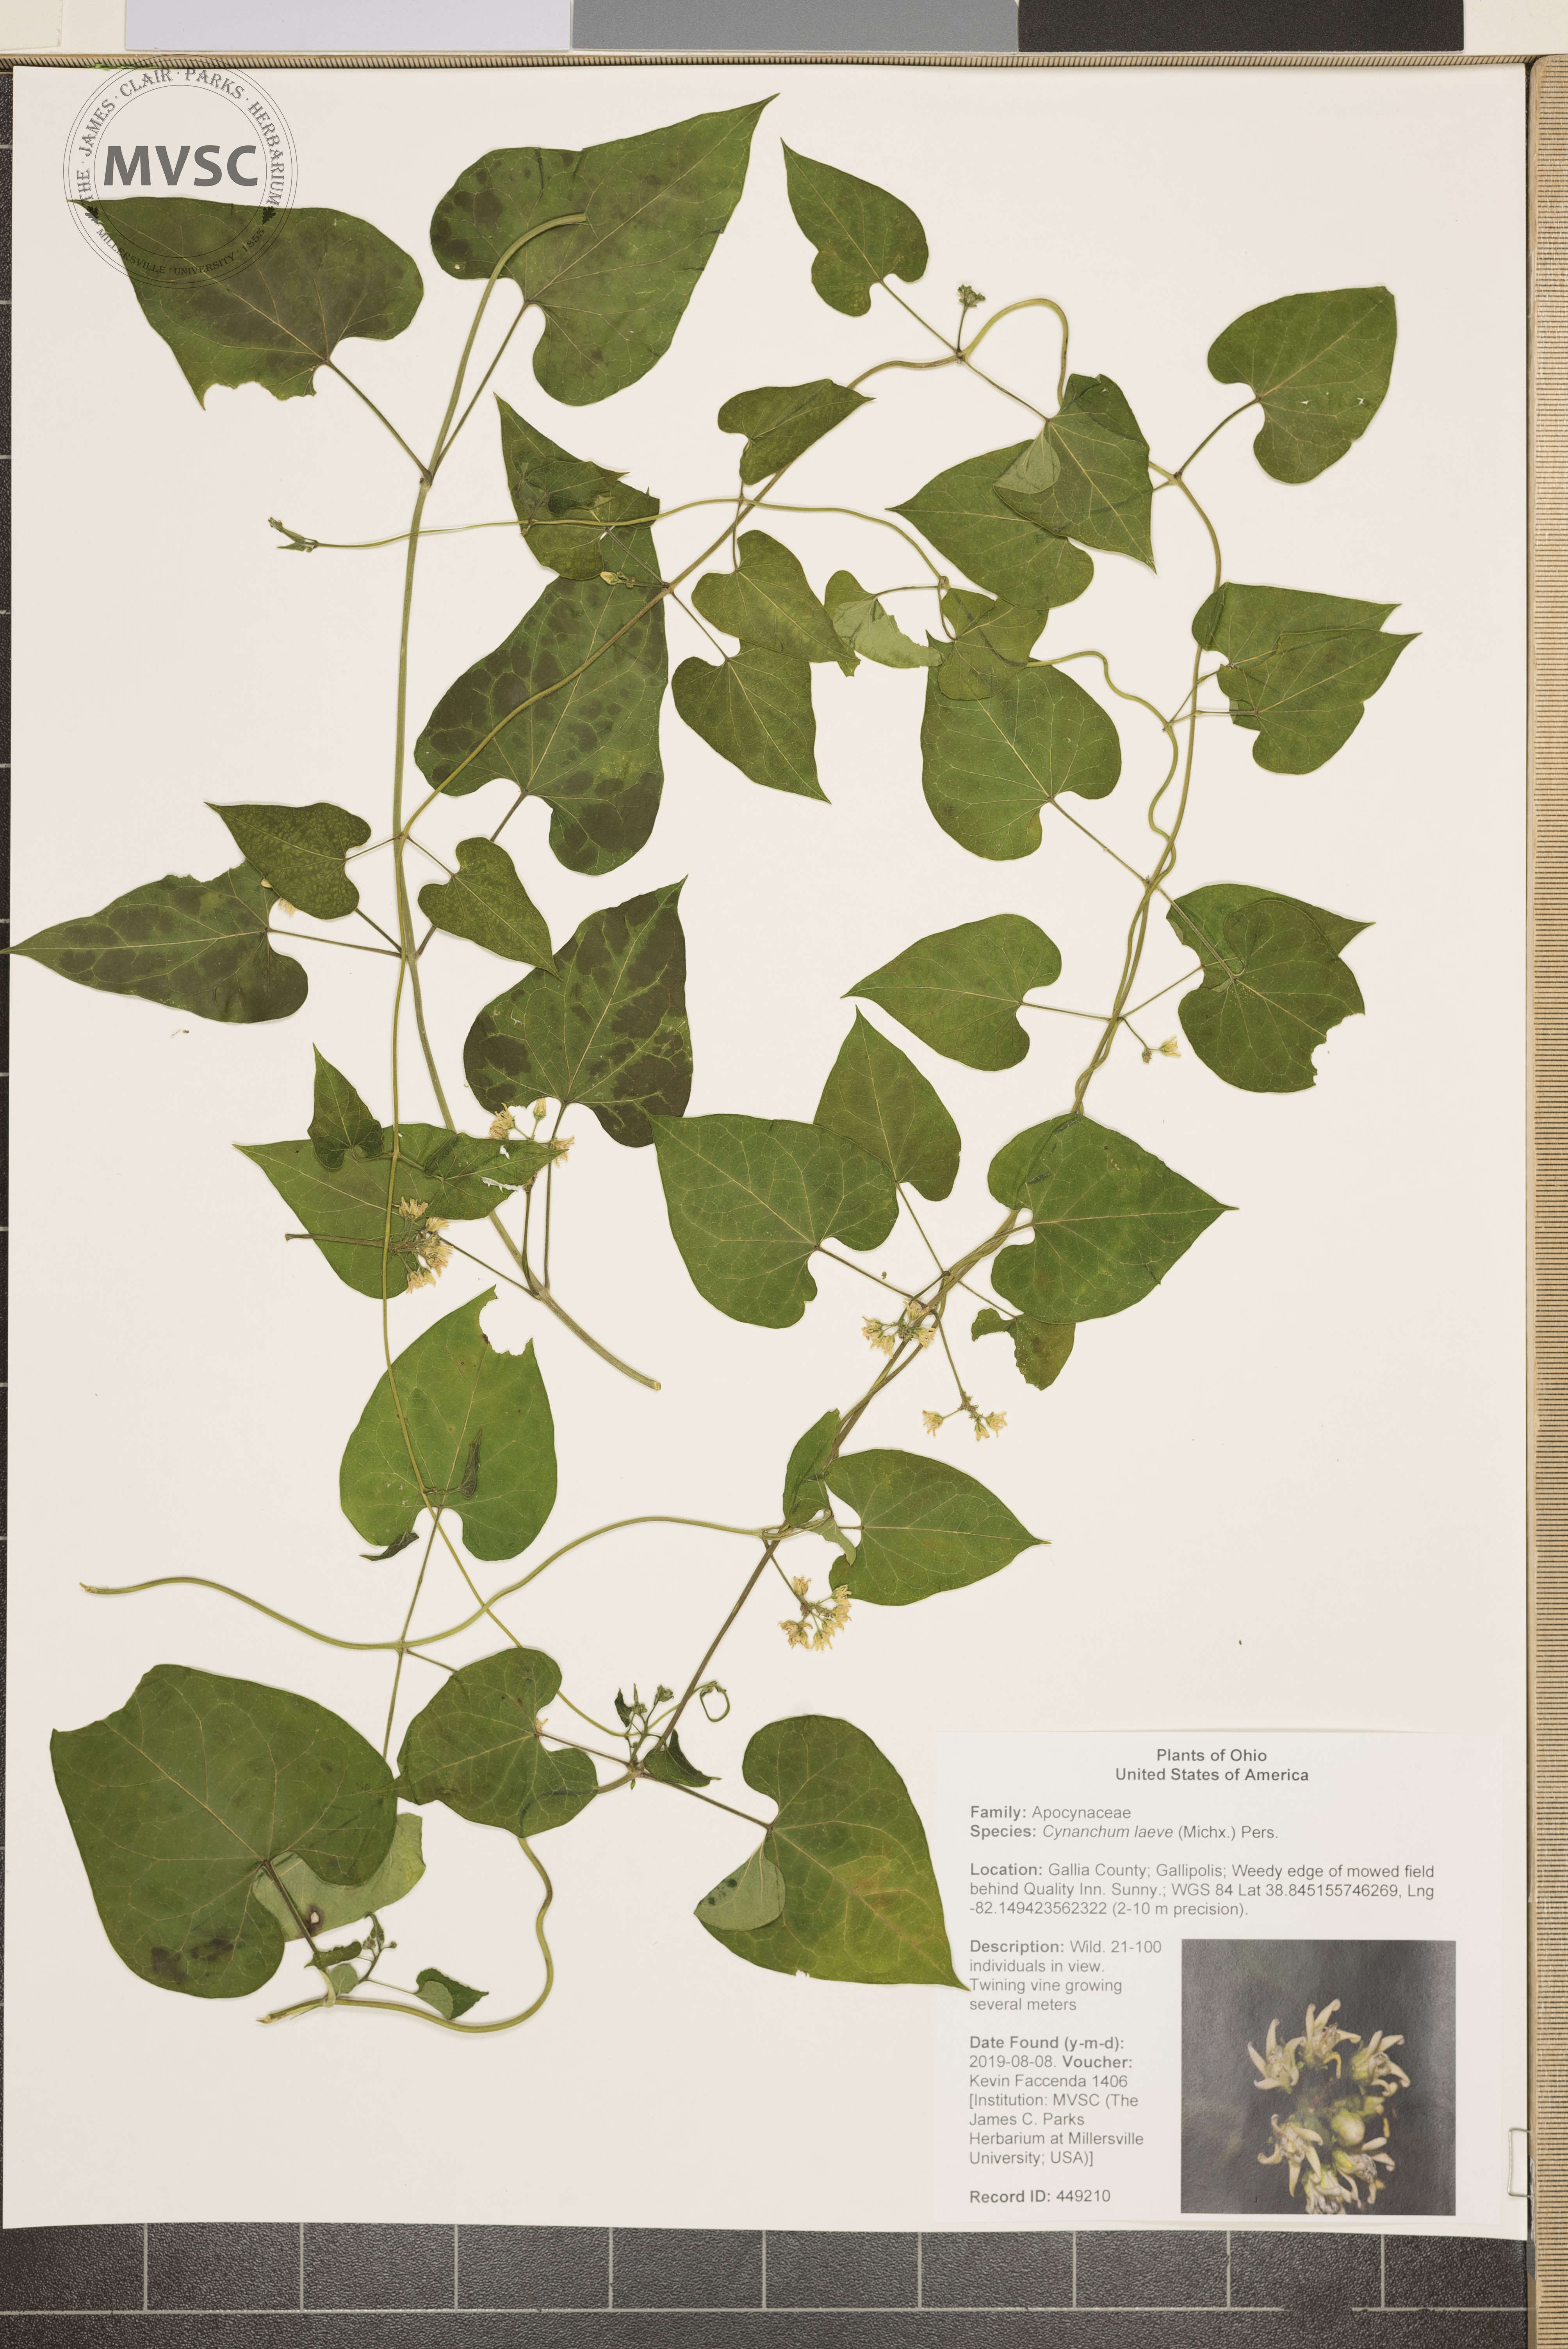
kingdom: Plantae
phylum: Tracheophyta
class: Magnoliopsida
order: Gentianales
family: Apocynaceae
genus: Cynanchum
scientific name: Cynanchum laeve
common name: Sandvine
